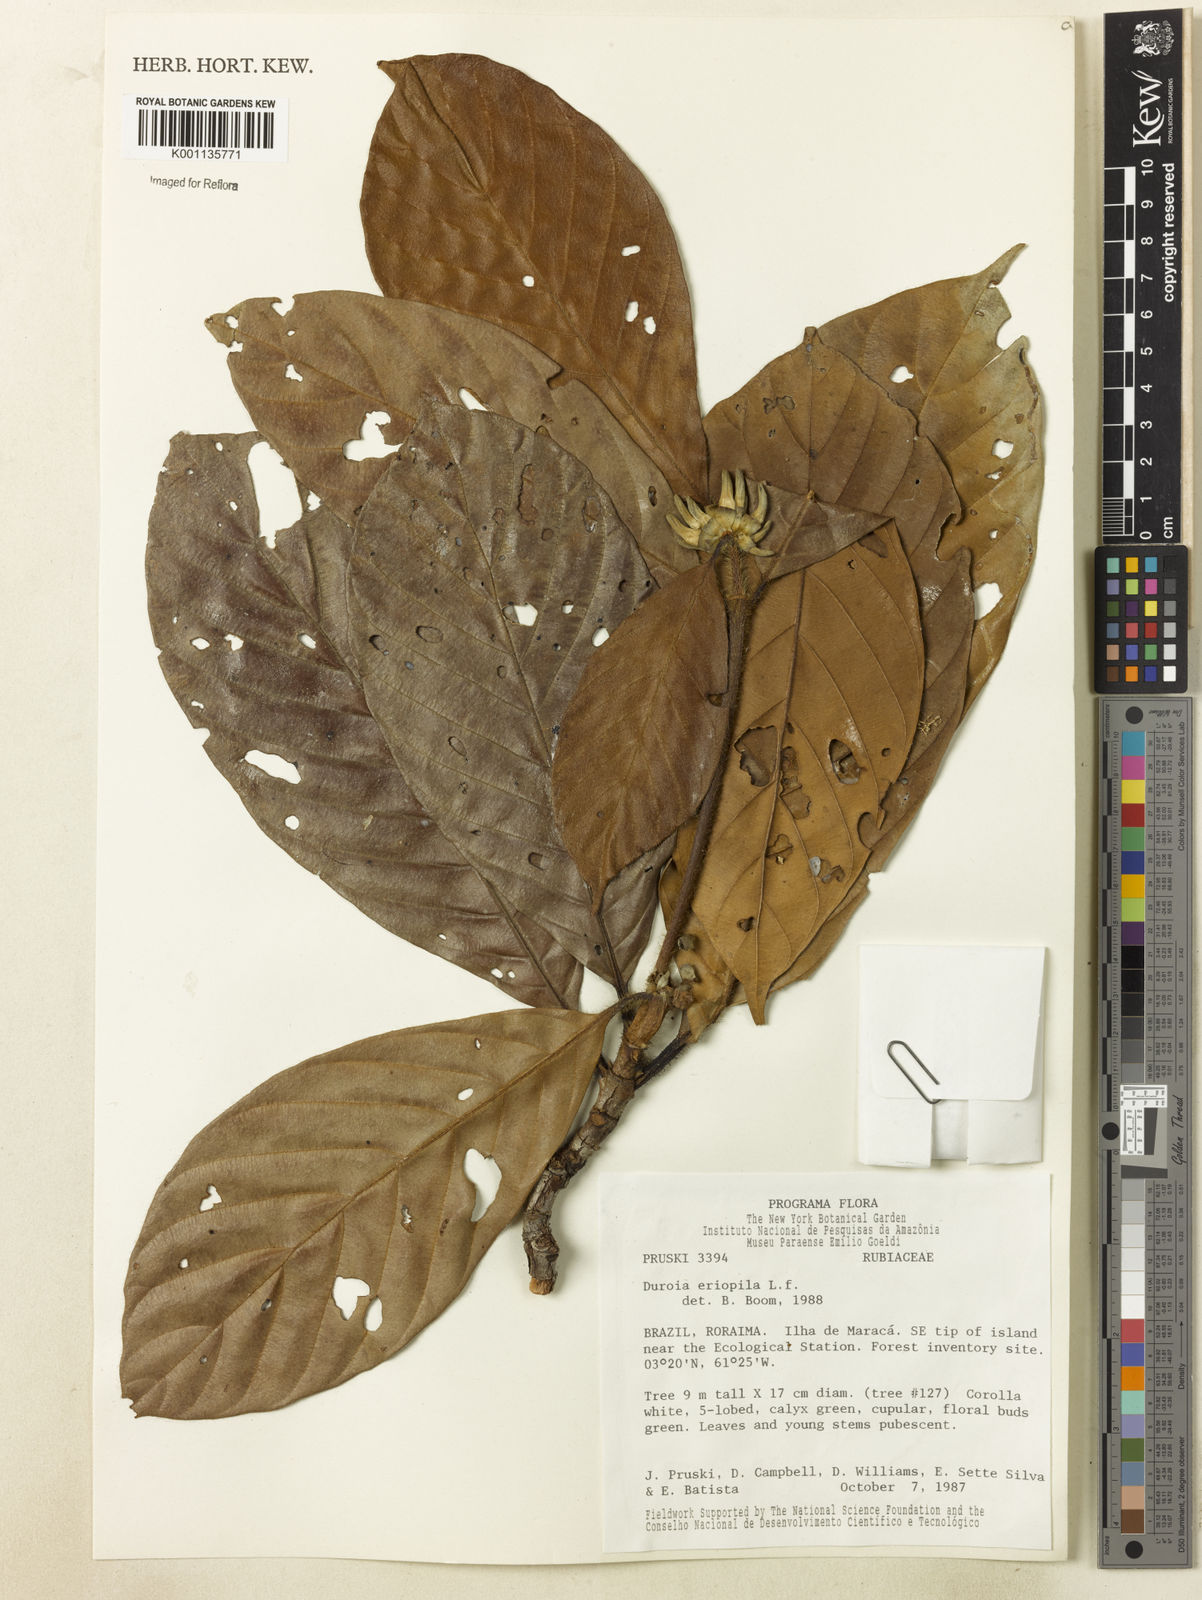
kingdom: Plantae
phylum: Tracheophyta
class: Magnoliopsida
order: Gentianales
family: Rubiaceae
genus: Duroia
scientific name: Duroia eriopila
